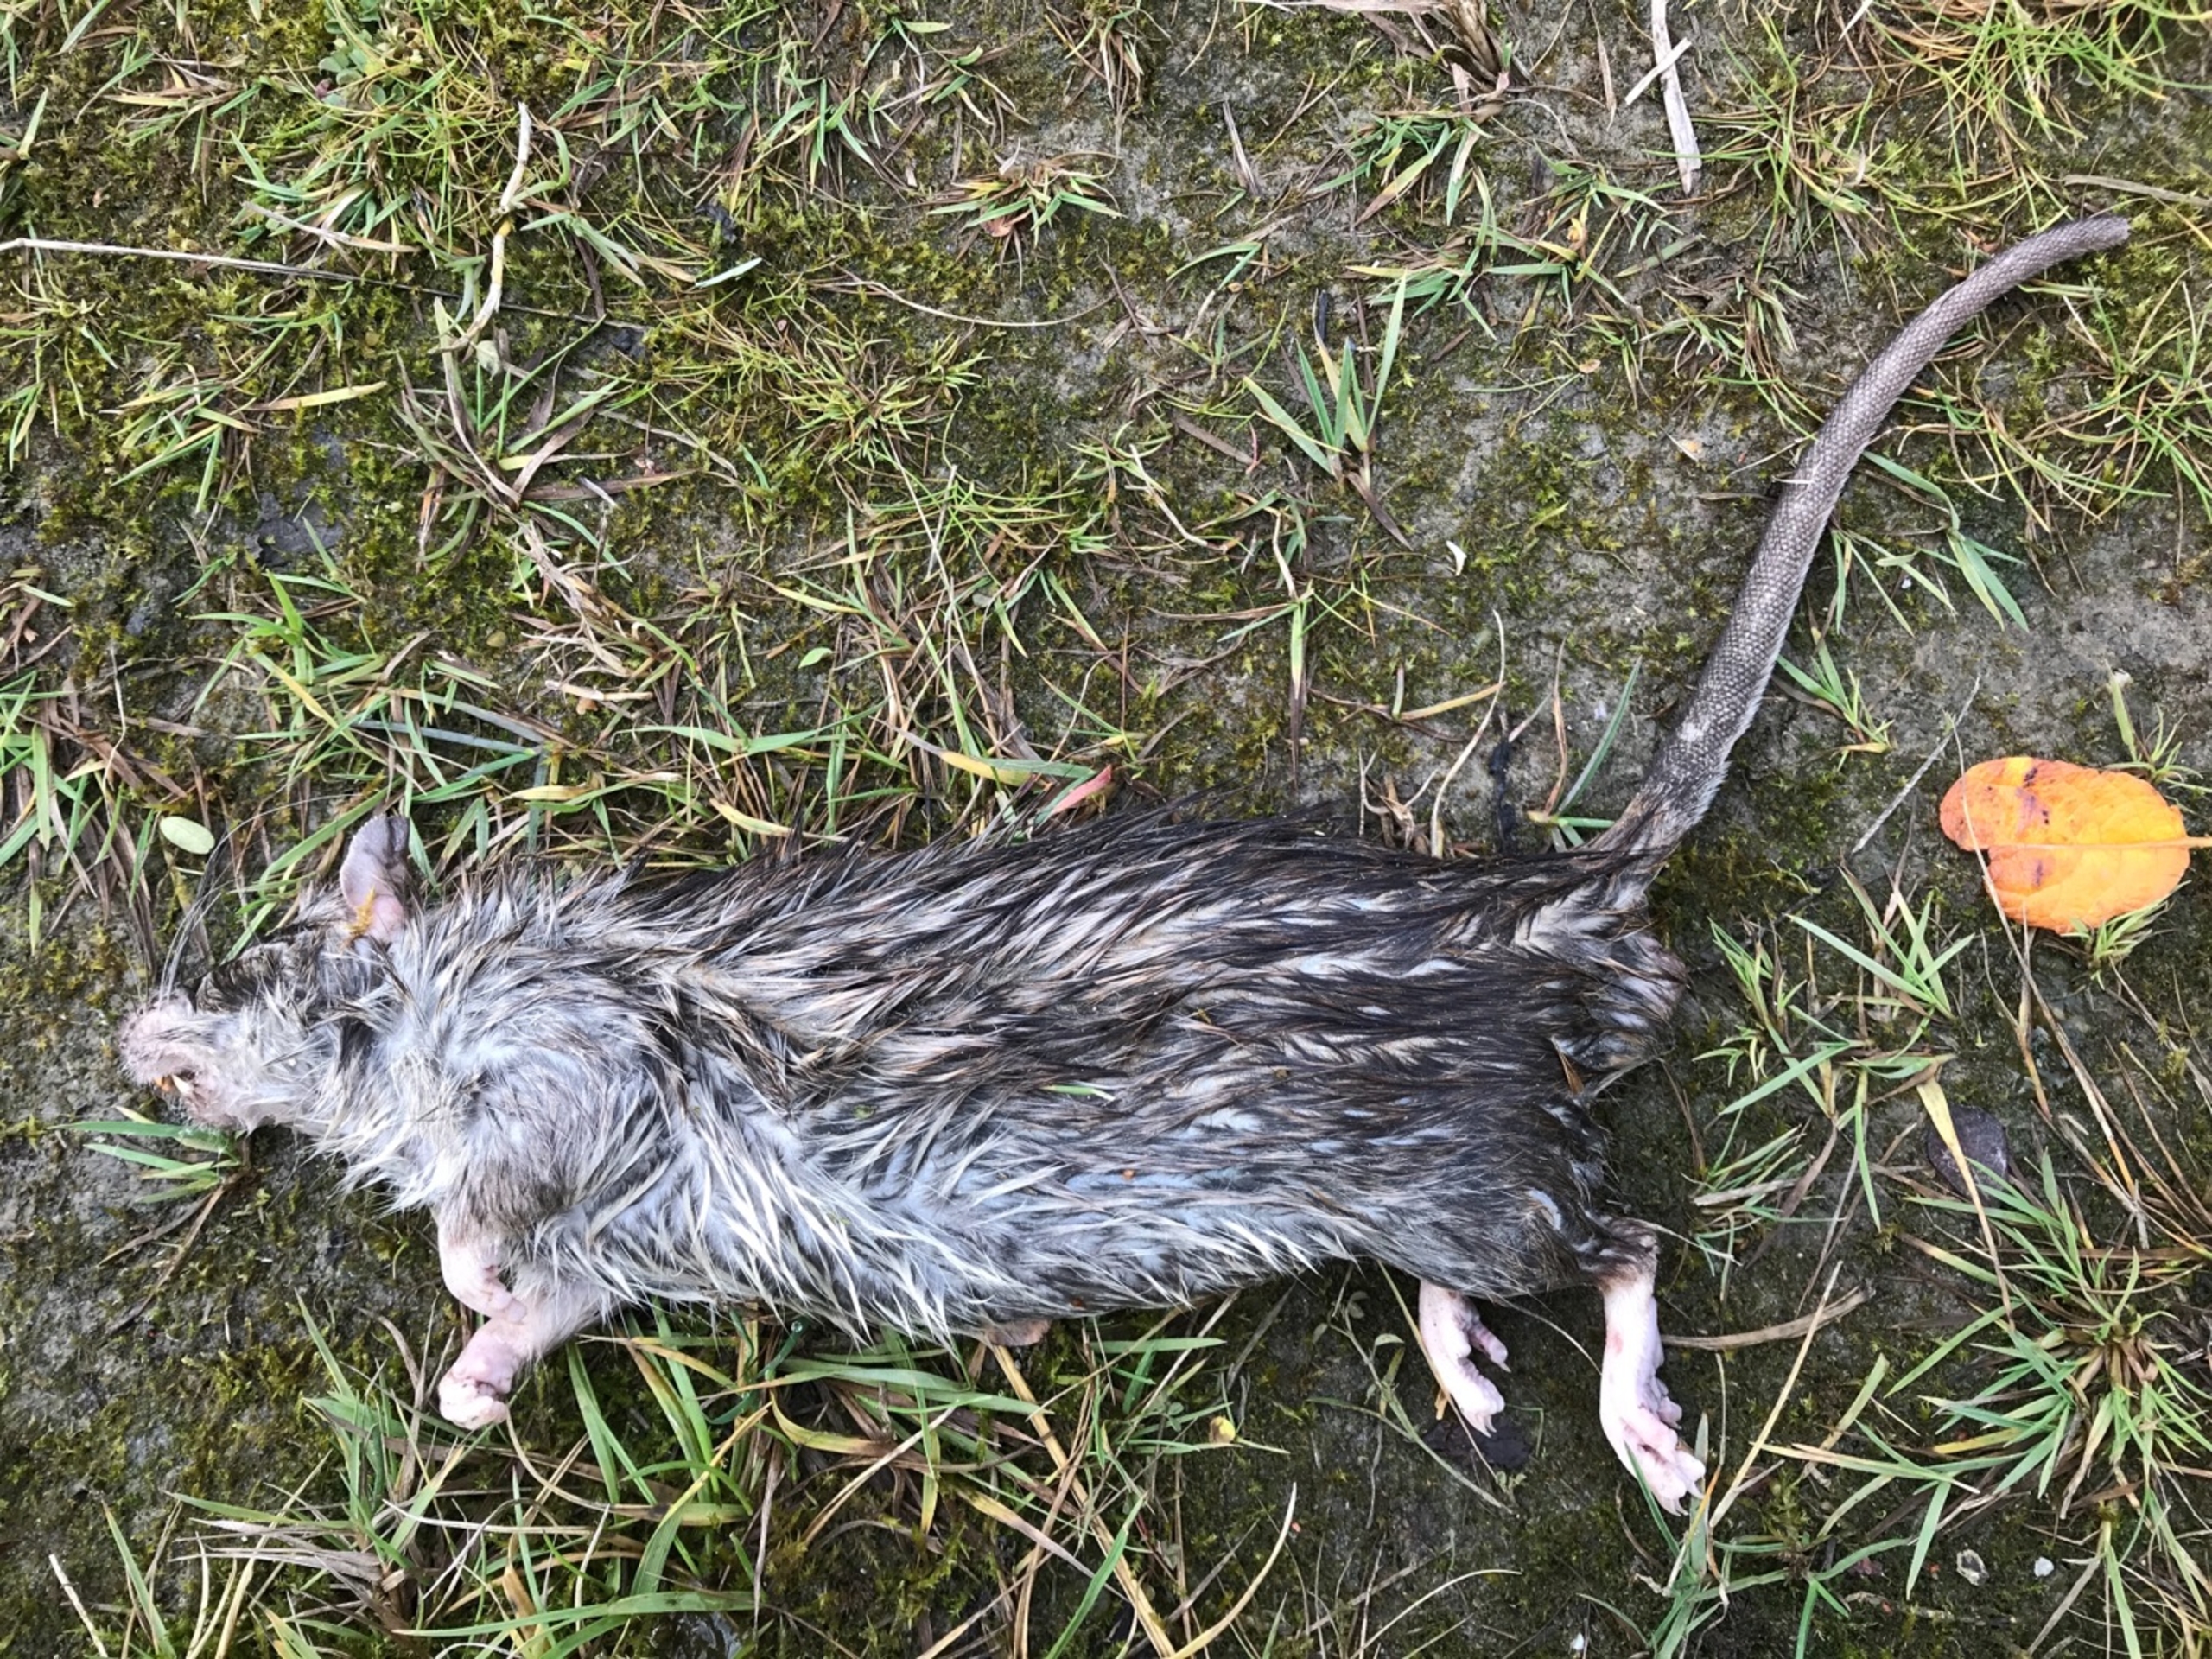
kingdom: Animalia
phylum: Chordata
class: Mammalia
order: Rodentia
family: Muridae
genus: Rattus
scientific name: Rattus norvegicus
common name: Brun rotte
